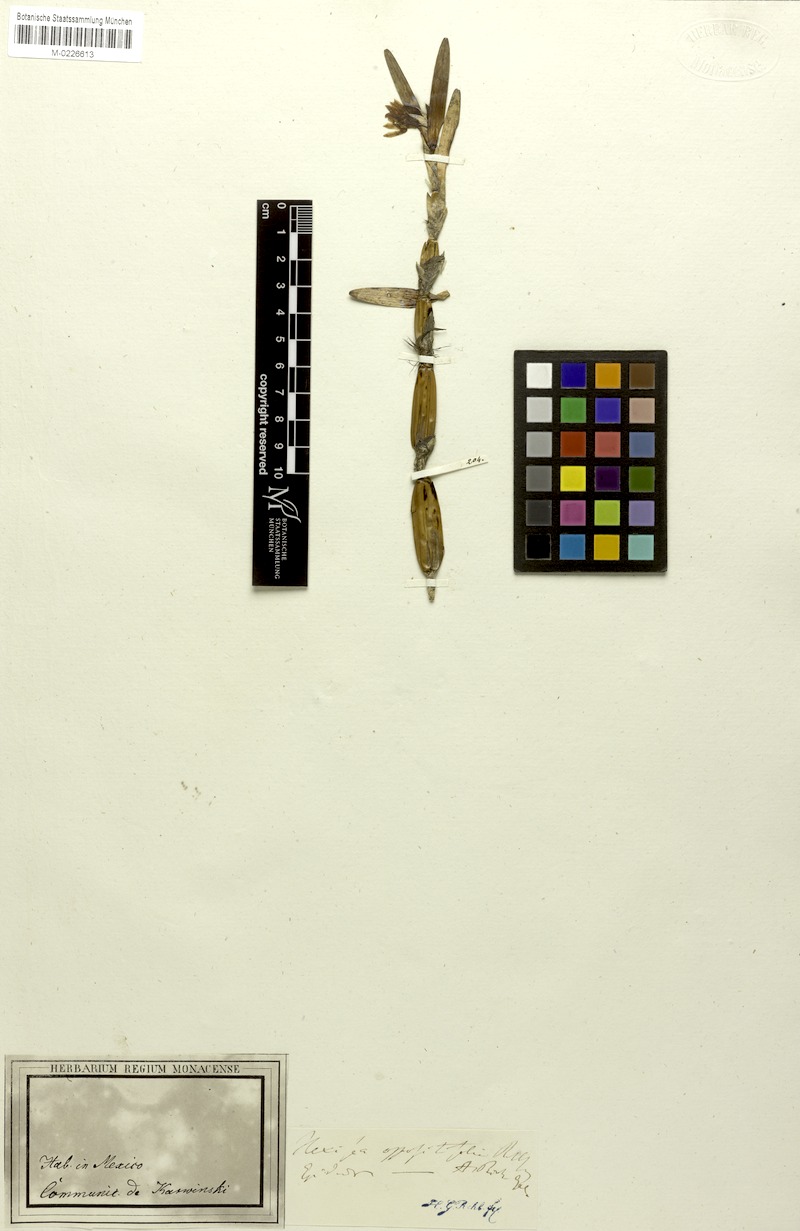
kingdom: Plantae
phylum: Tracheophyta
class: Liliopsida
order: Asparagales
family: Orchidaceae
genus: Scaphyglottis
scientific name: Scaphyglottis imbricata
